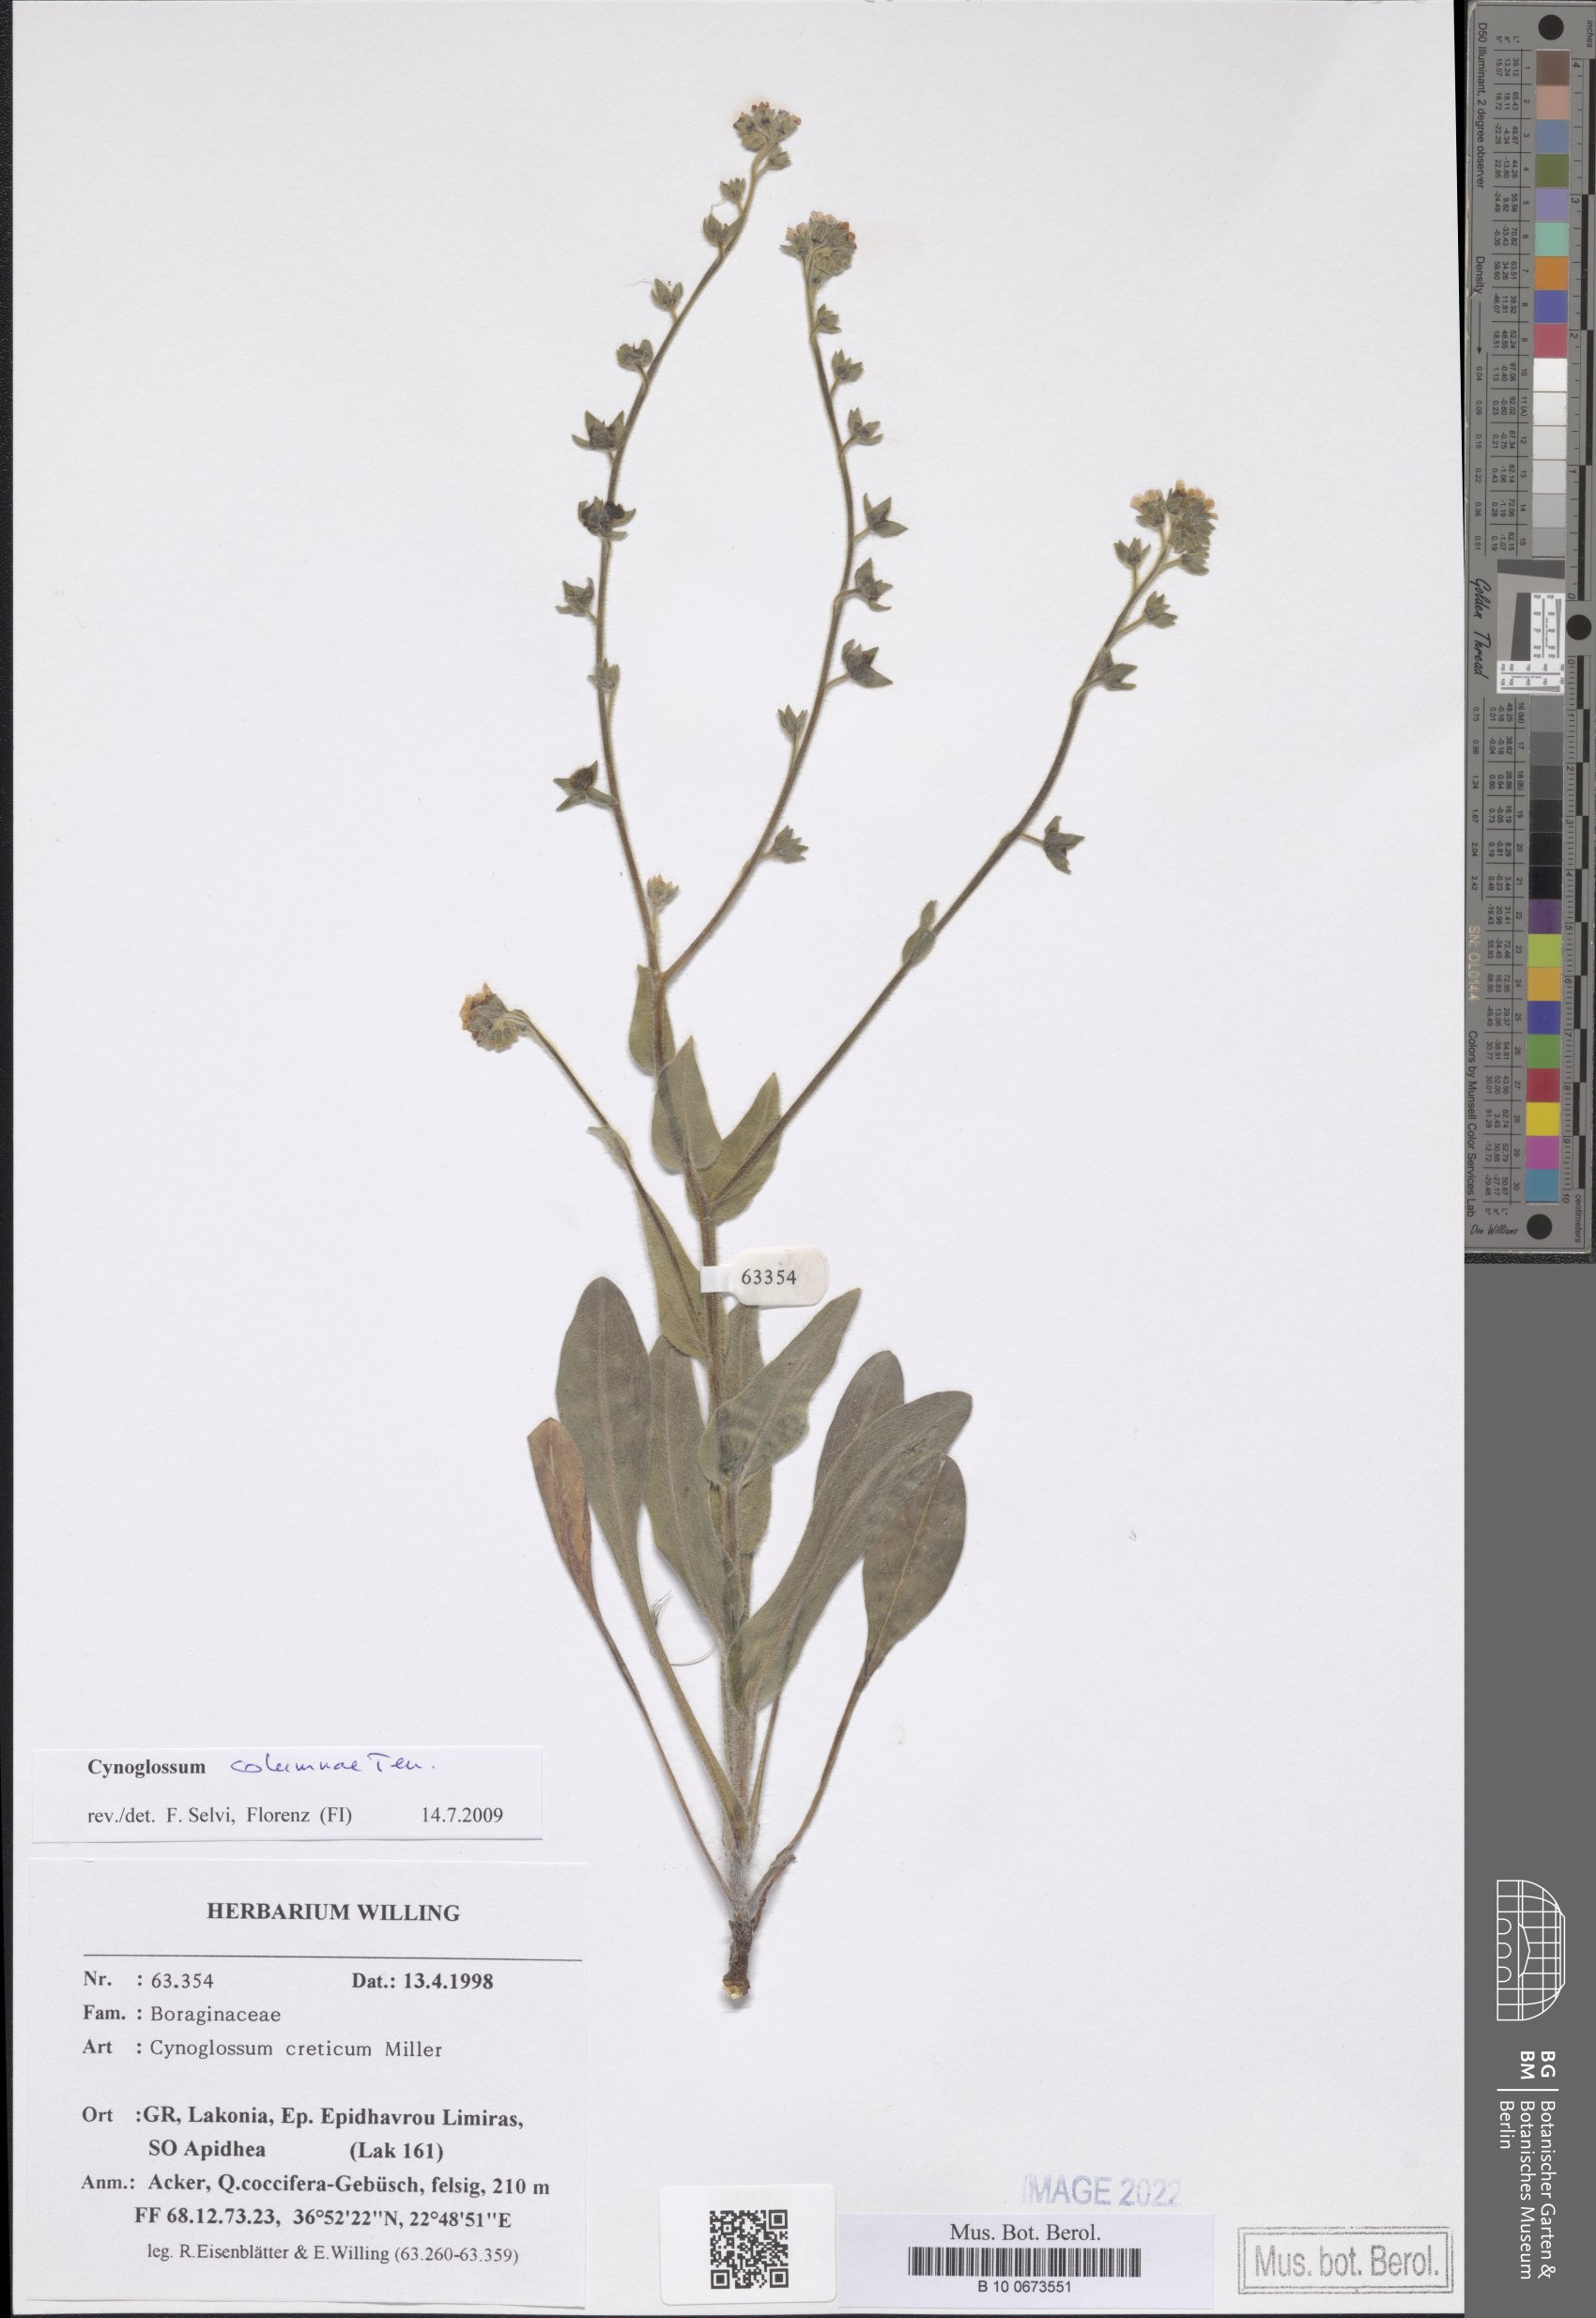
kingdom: Plantae
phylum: Tracheophyta
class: Magnoliopsida
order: Boraginales
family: Boraginaceae
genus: Rindera
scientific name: Rindera columnae
